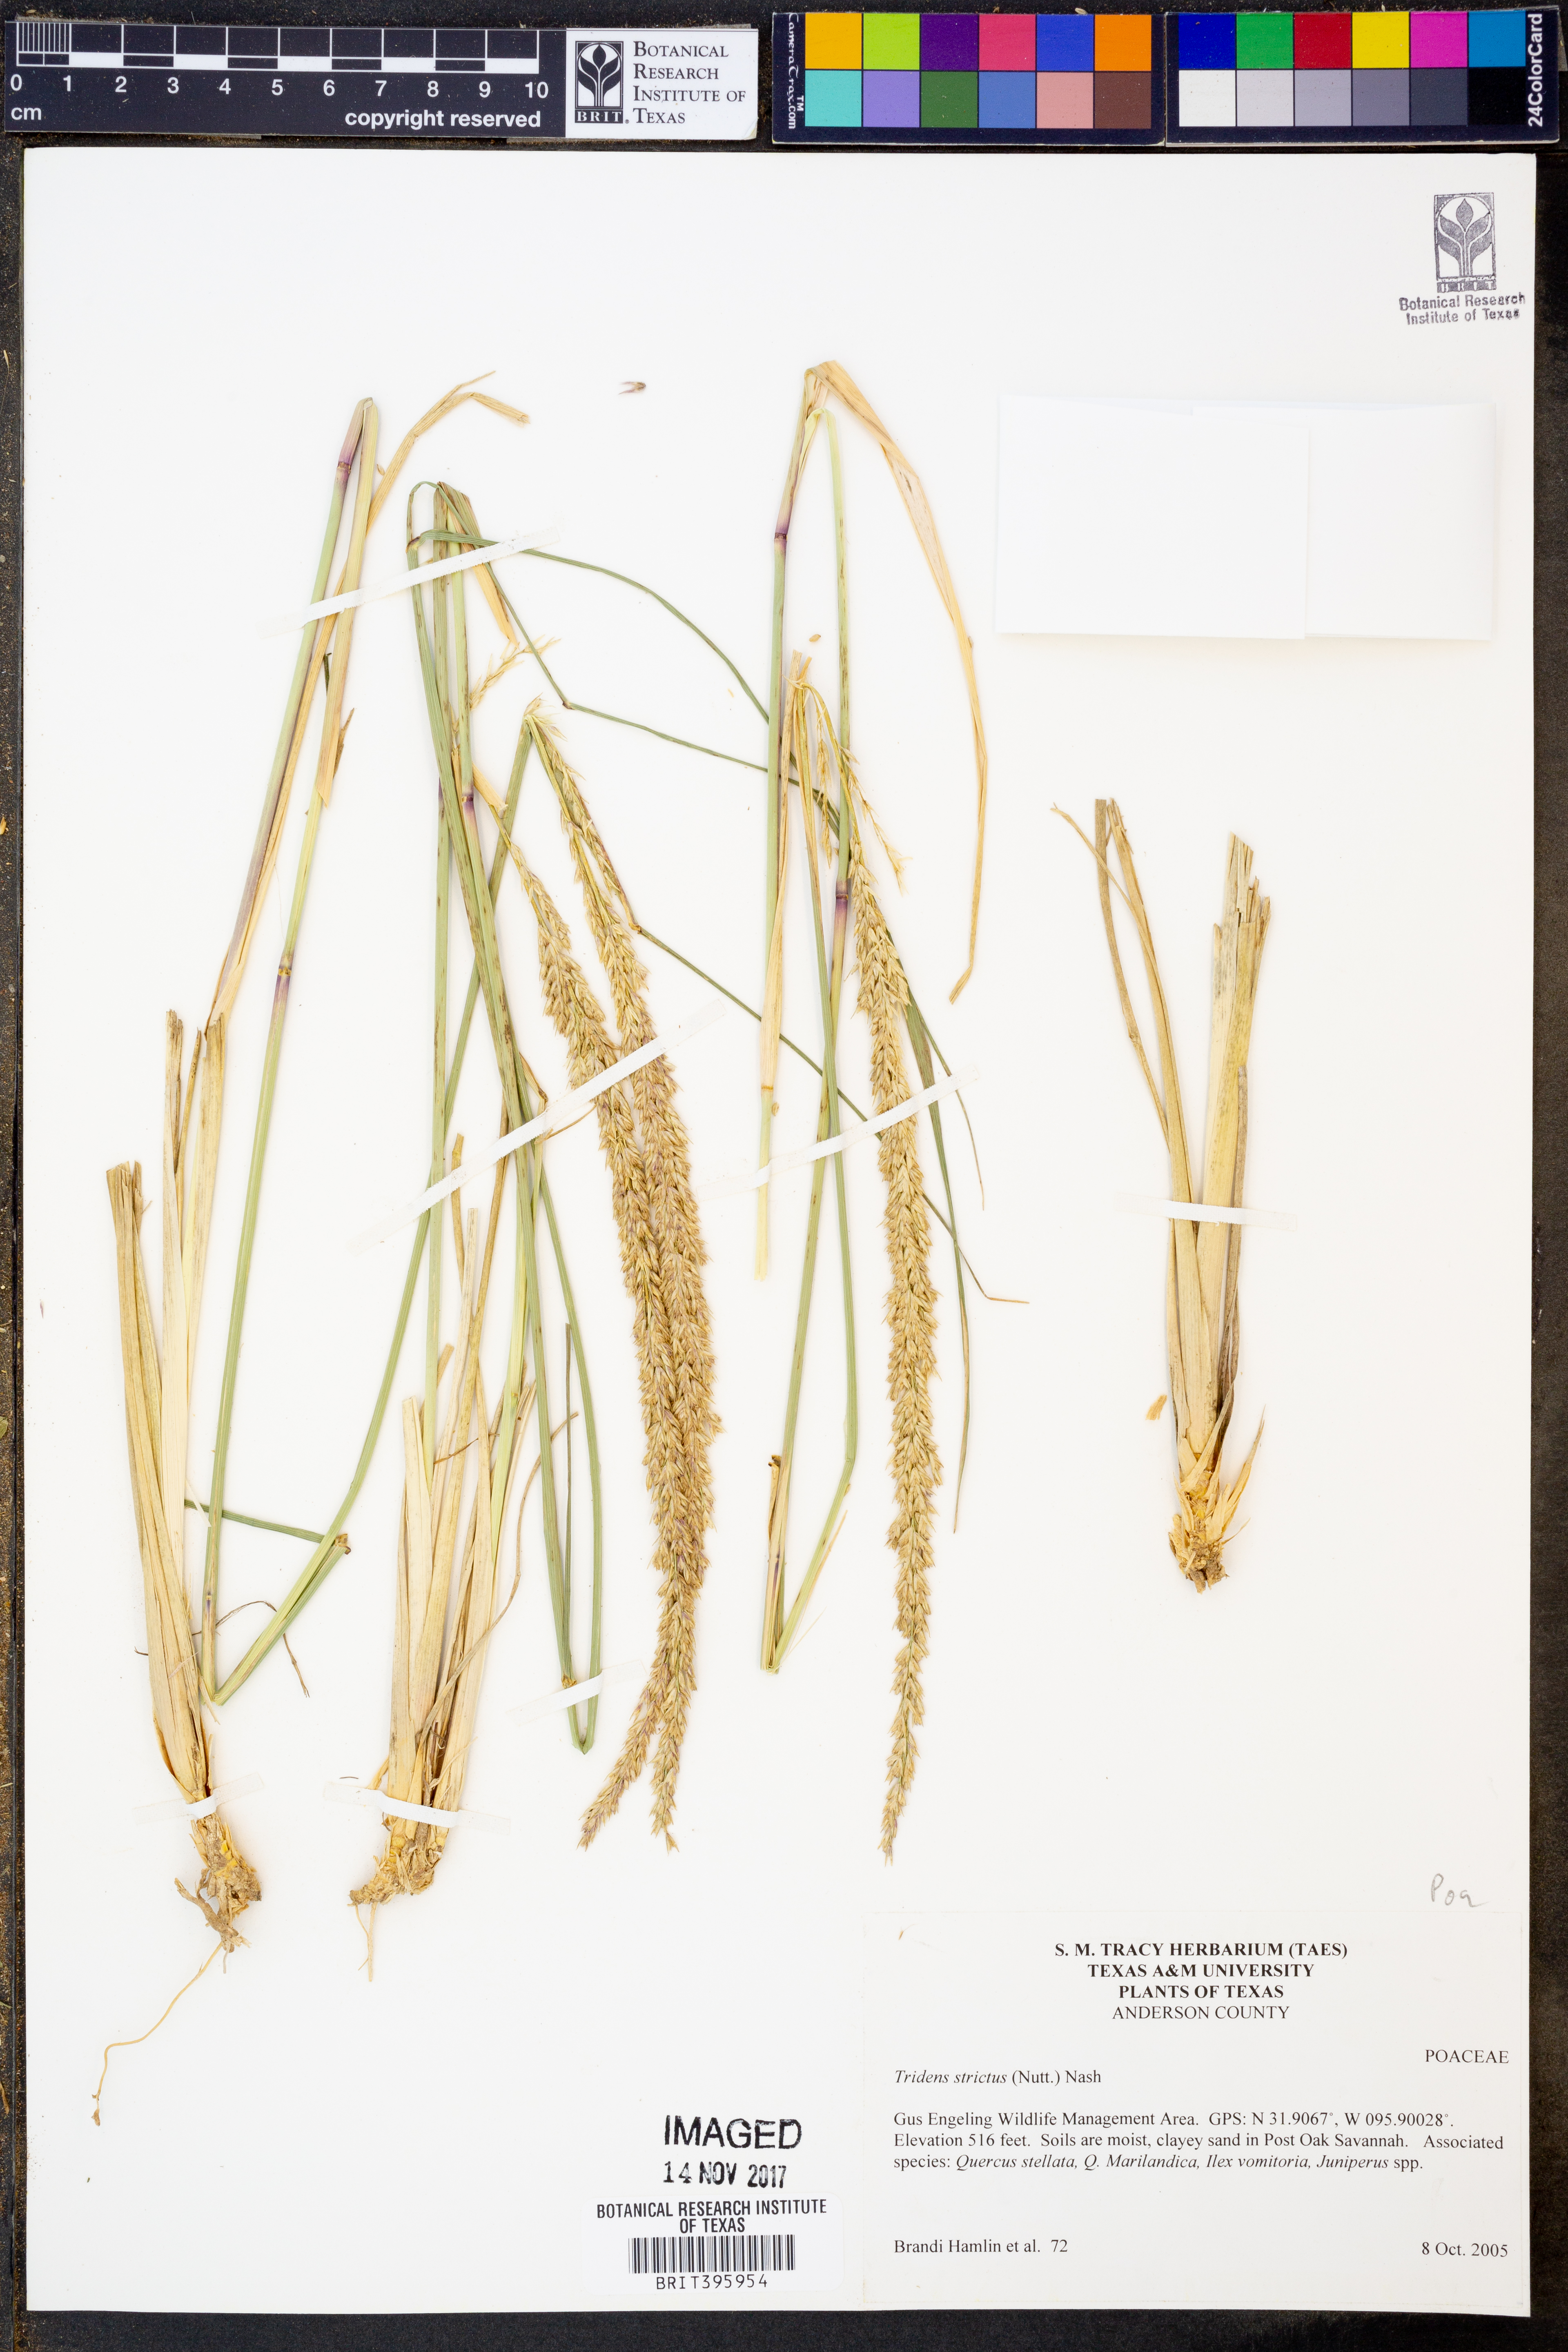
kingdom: Plantae
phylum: Tracheophyta
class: Liliopsida
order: Poales
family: Poaceae
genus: Tridens
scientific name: Tridens strictus
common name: Long-spike tridens
